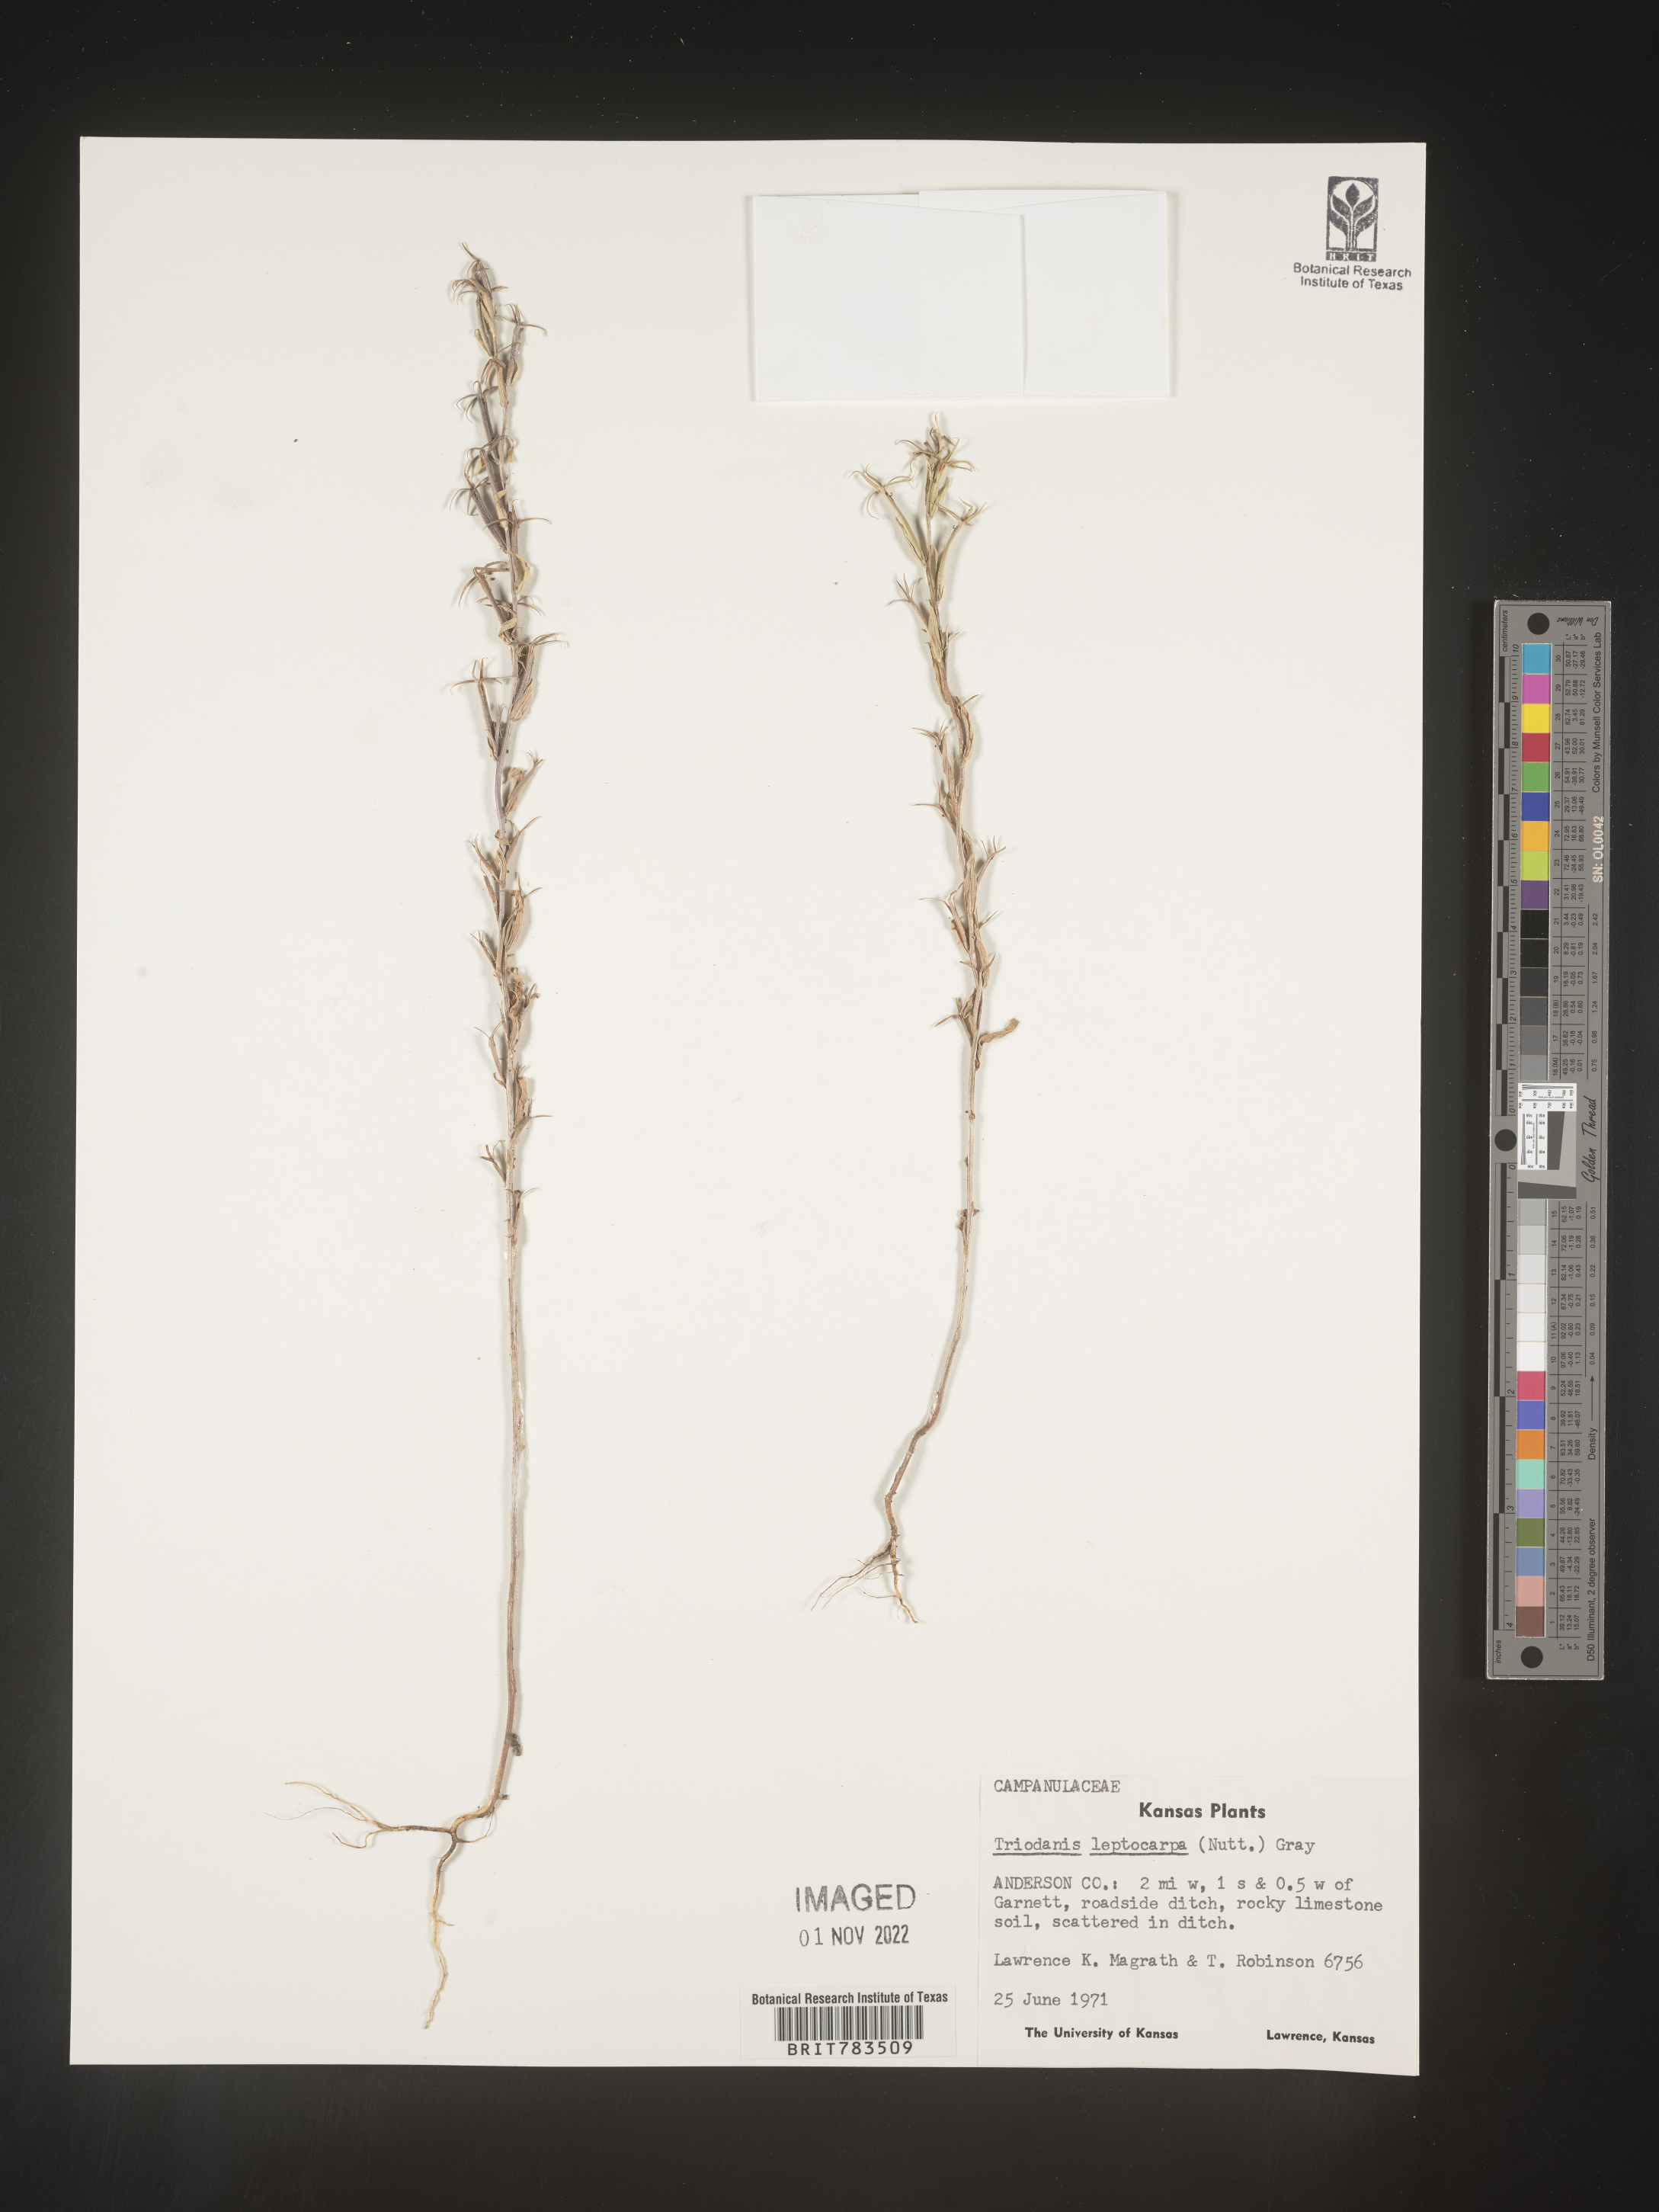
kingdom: Plantae
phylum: Tracheophyta
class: Magnoliopsida
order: Asterales
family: Campanulaceae
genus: Triodanis
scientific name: Triodanis leptocarpa
